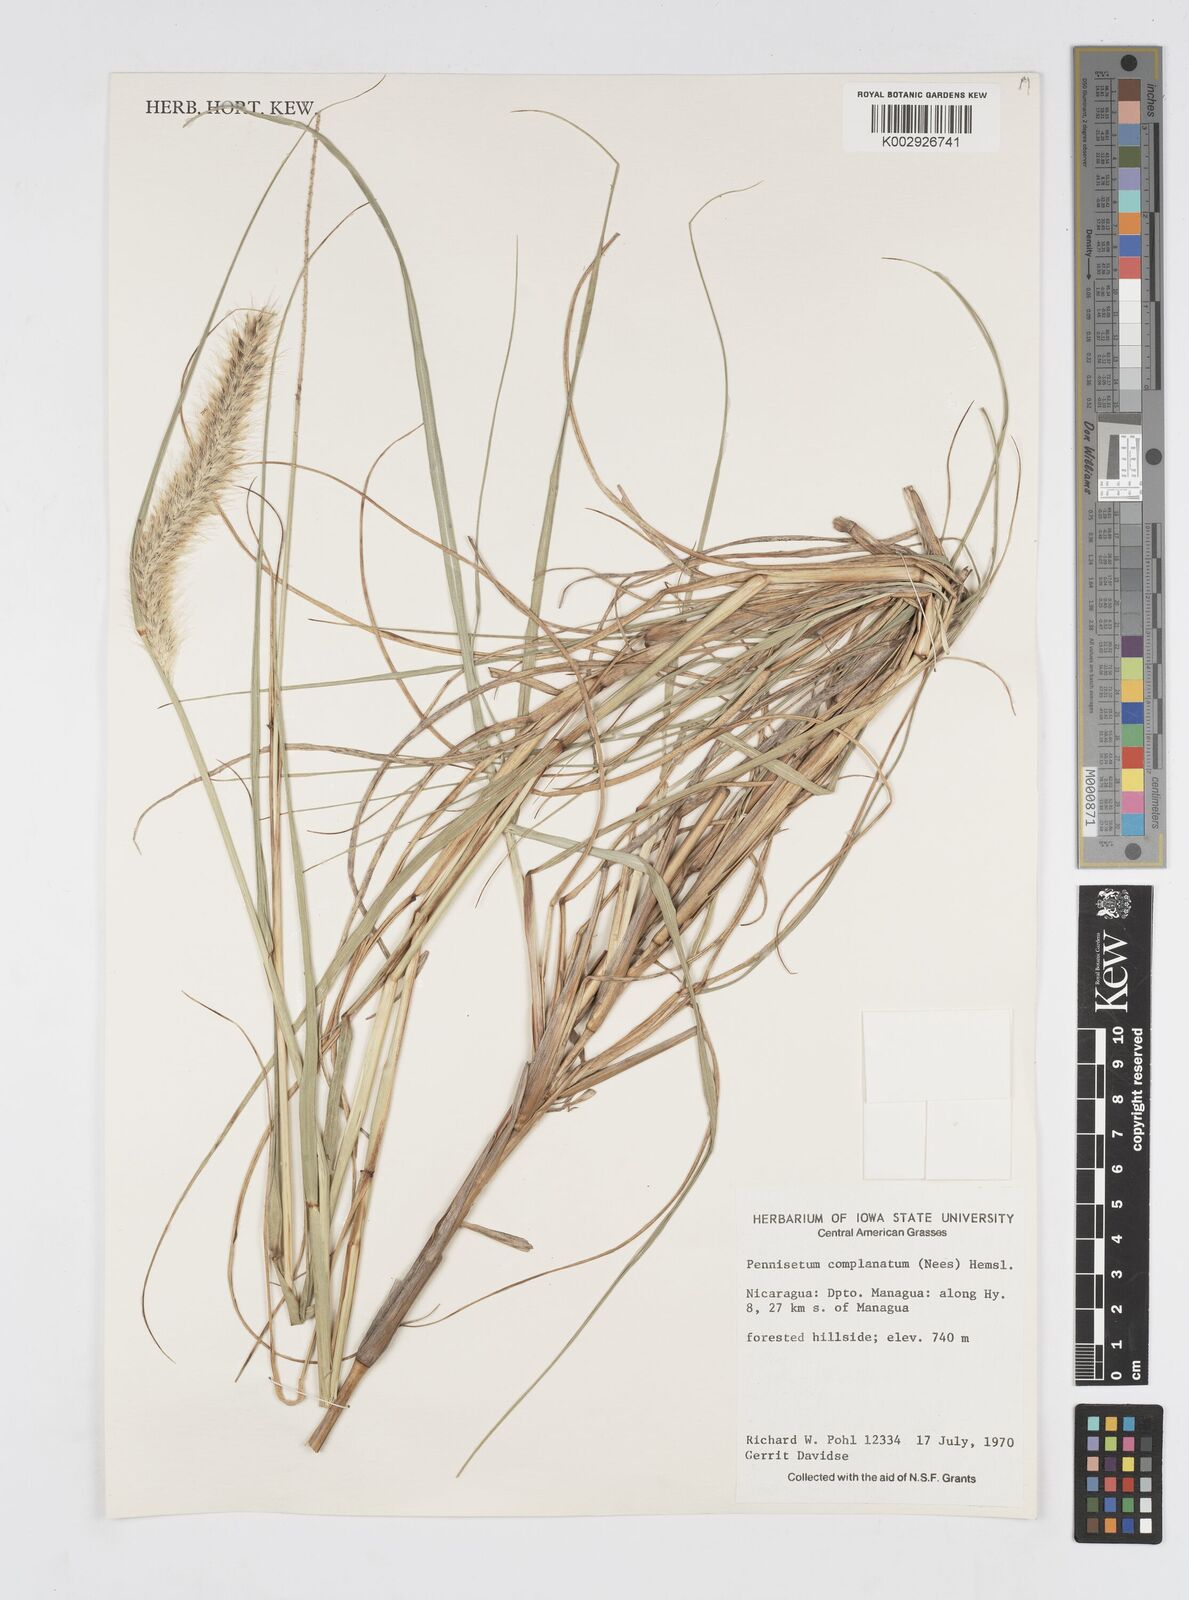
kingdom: Plantae
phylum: Tracheophyta
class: Liliopsida
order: Poales
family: Poaceae
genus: Cenchrus
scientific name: Cenchrus complanatus
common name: Nicaraguan fountaingrass
